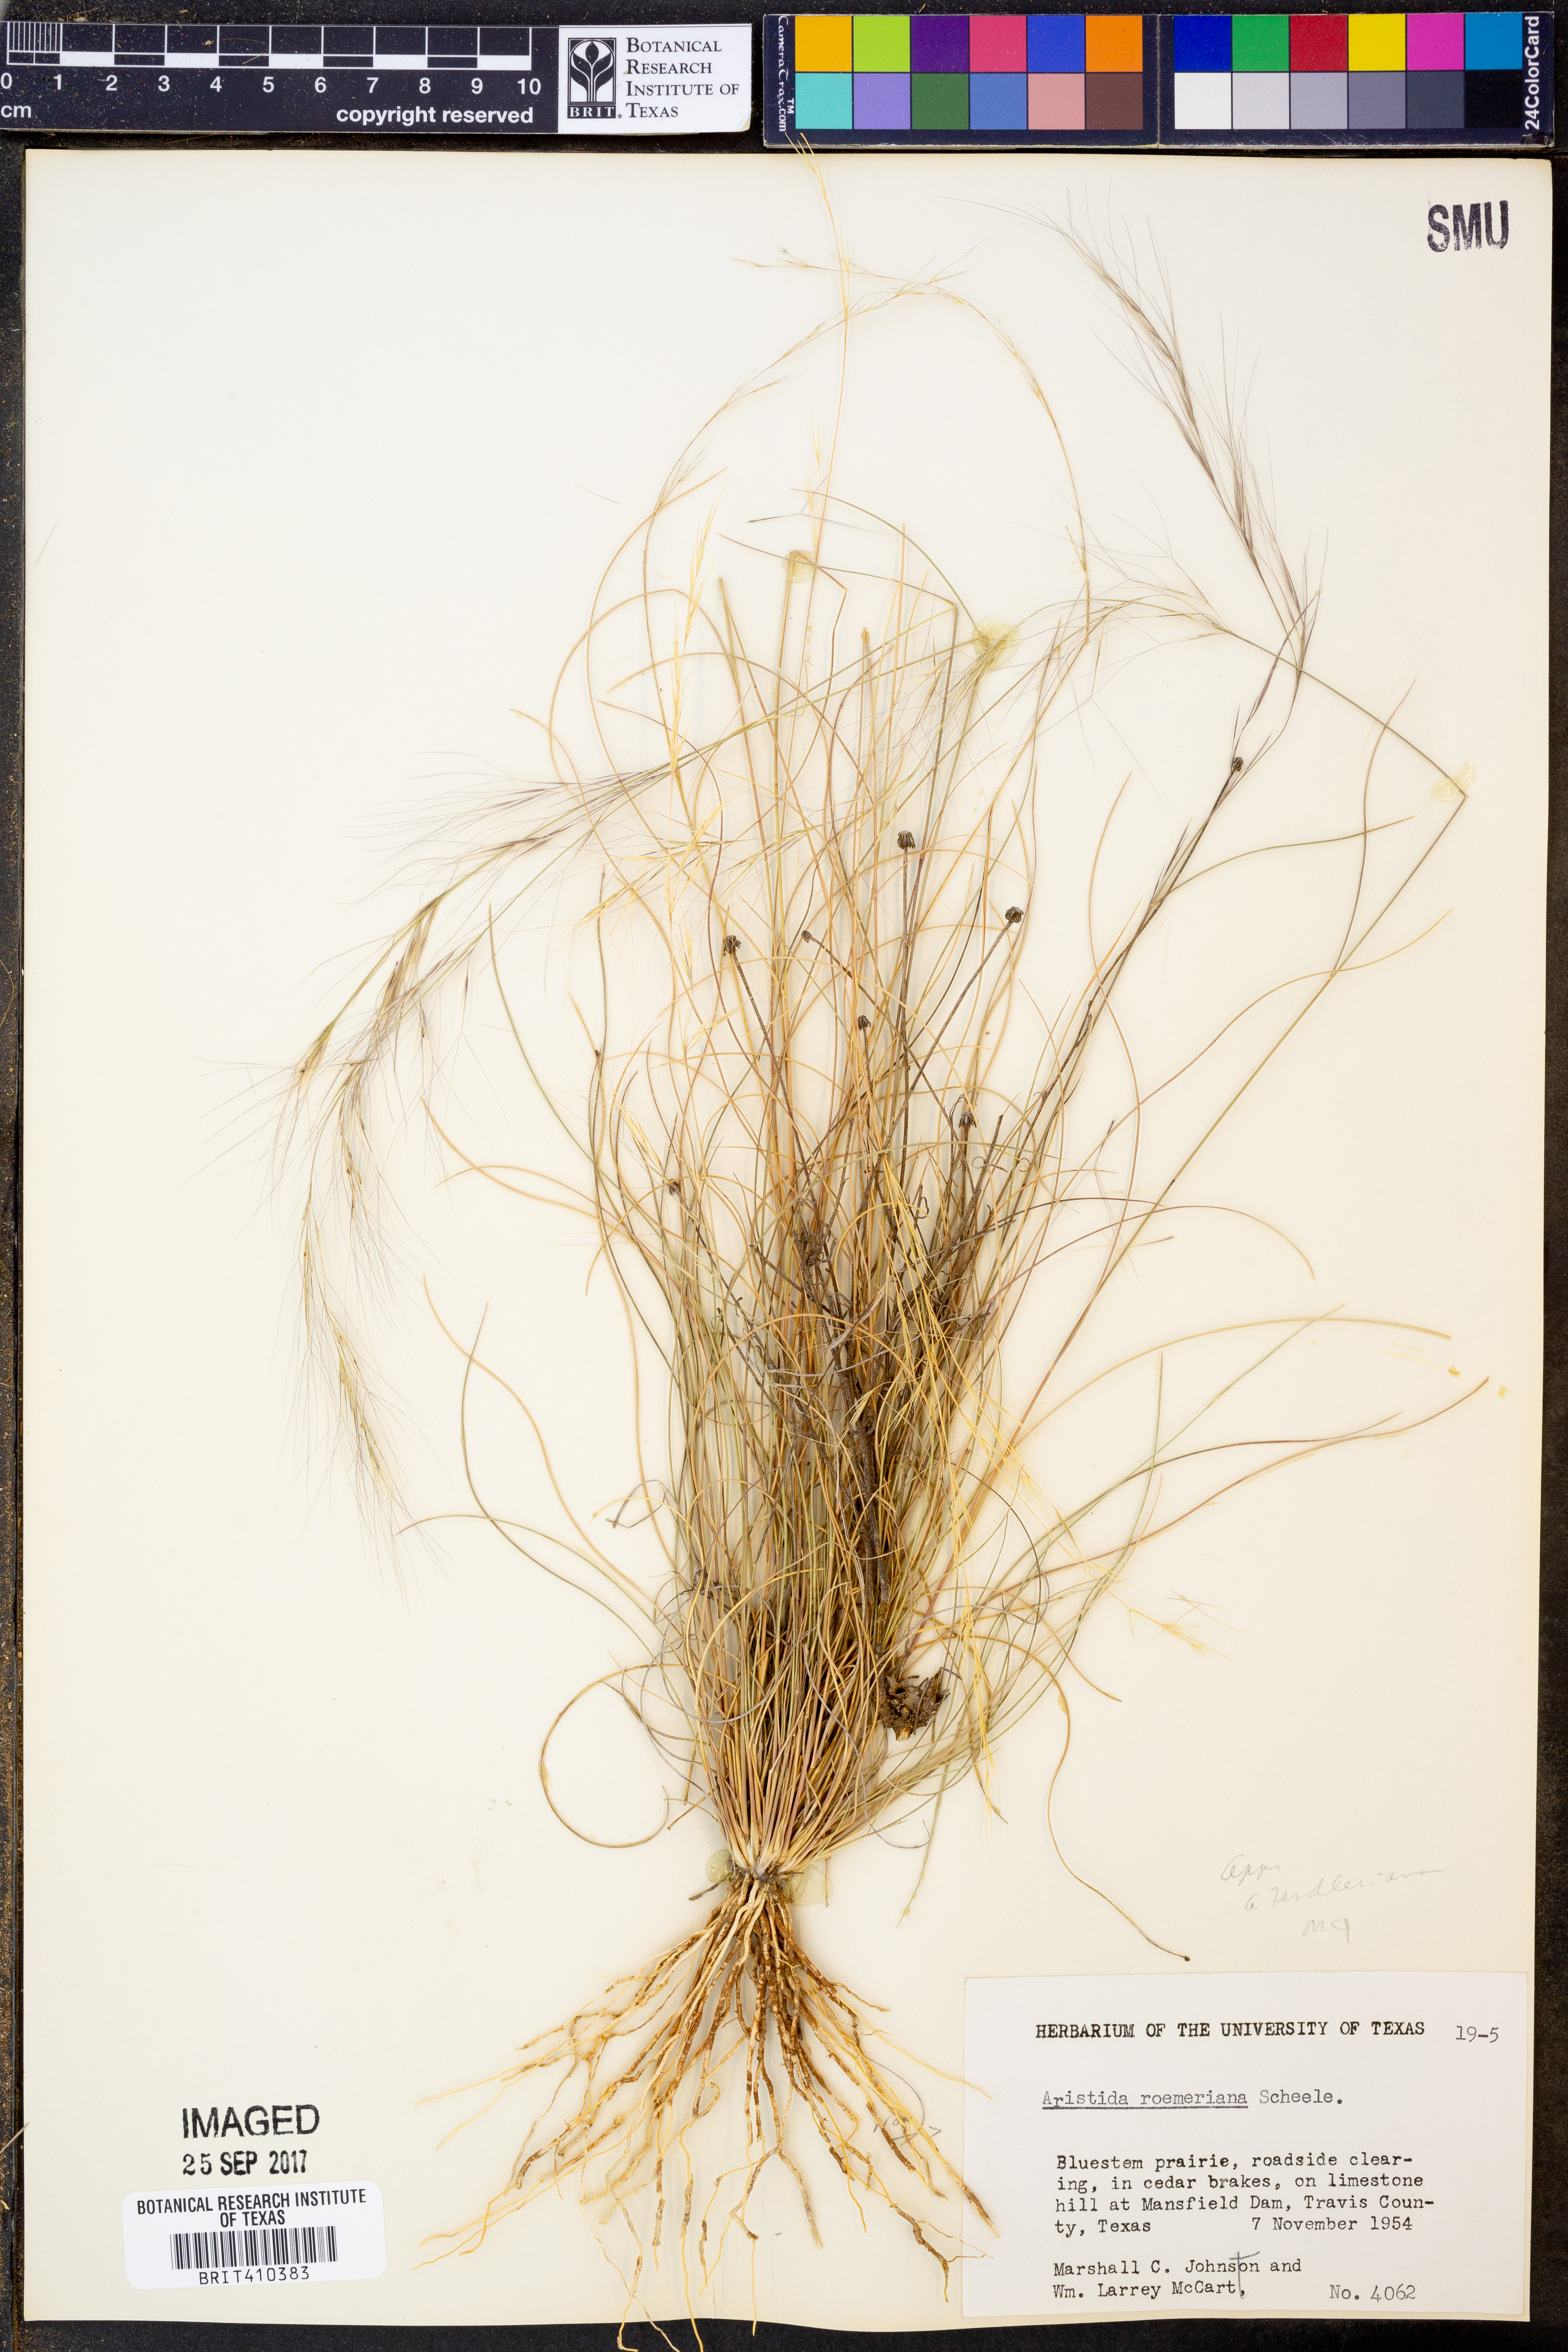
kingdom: Plantae
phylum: Tracheophyta
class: Liliopsida
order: Poales
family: Poaceae
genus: Aristida
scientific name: Aristida purpurea
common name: Purple threeawn
